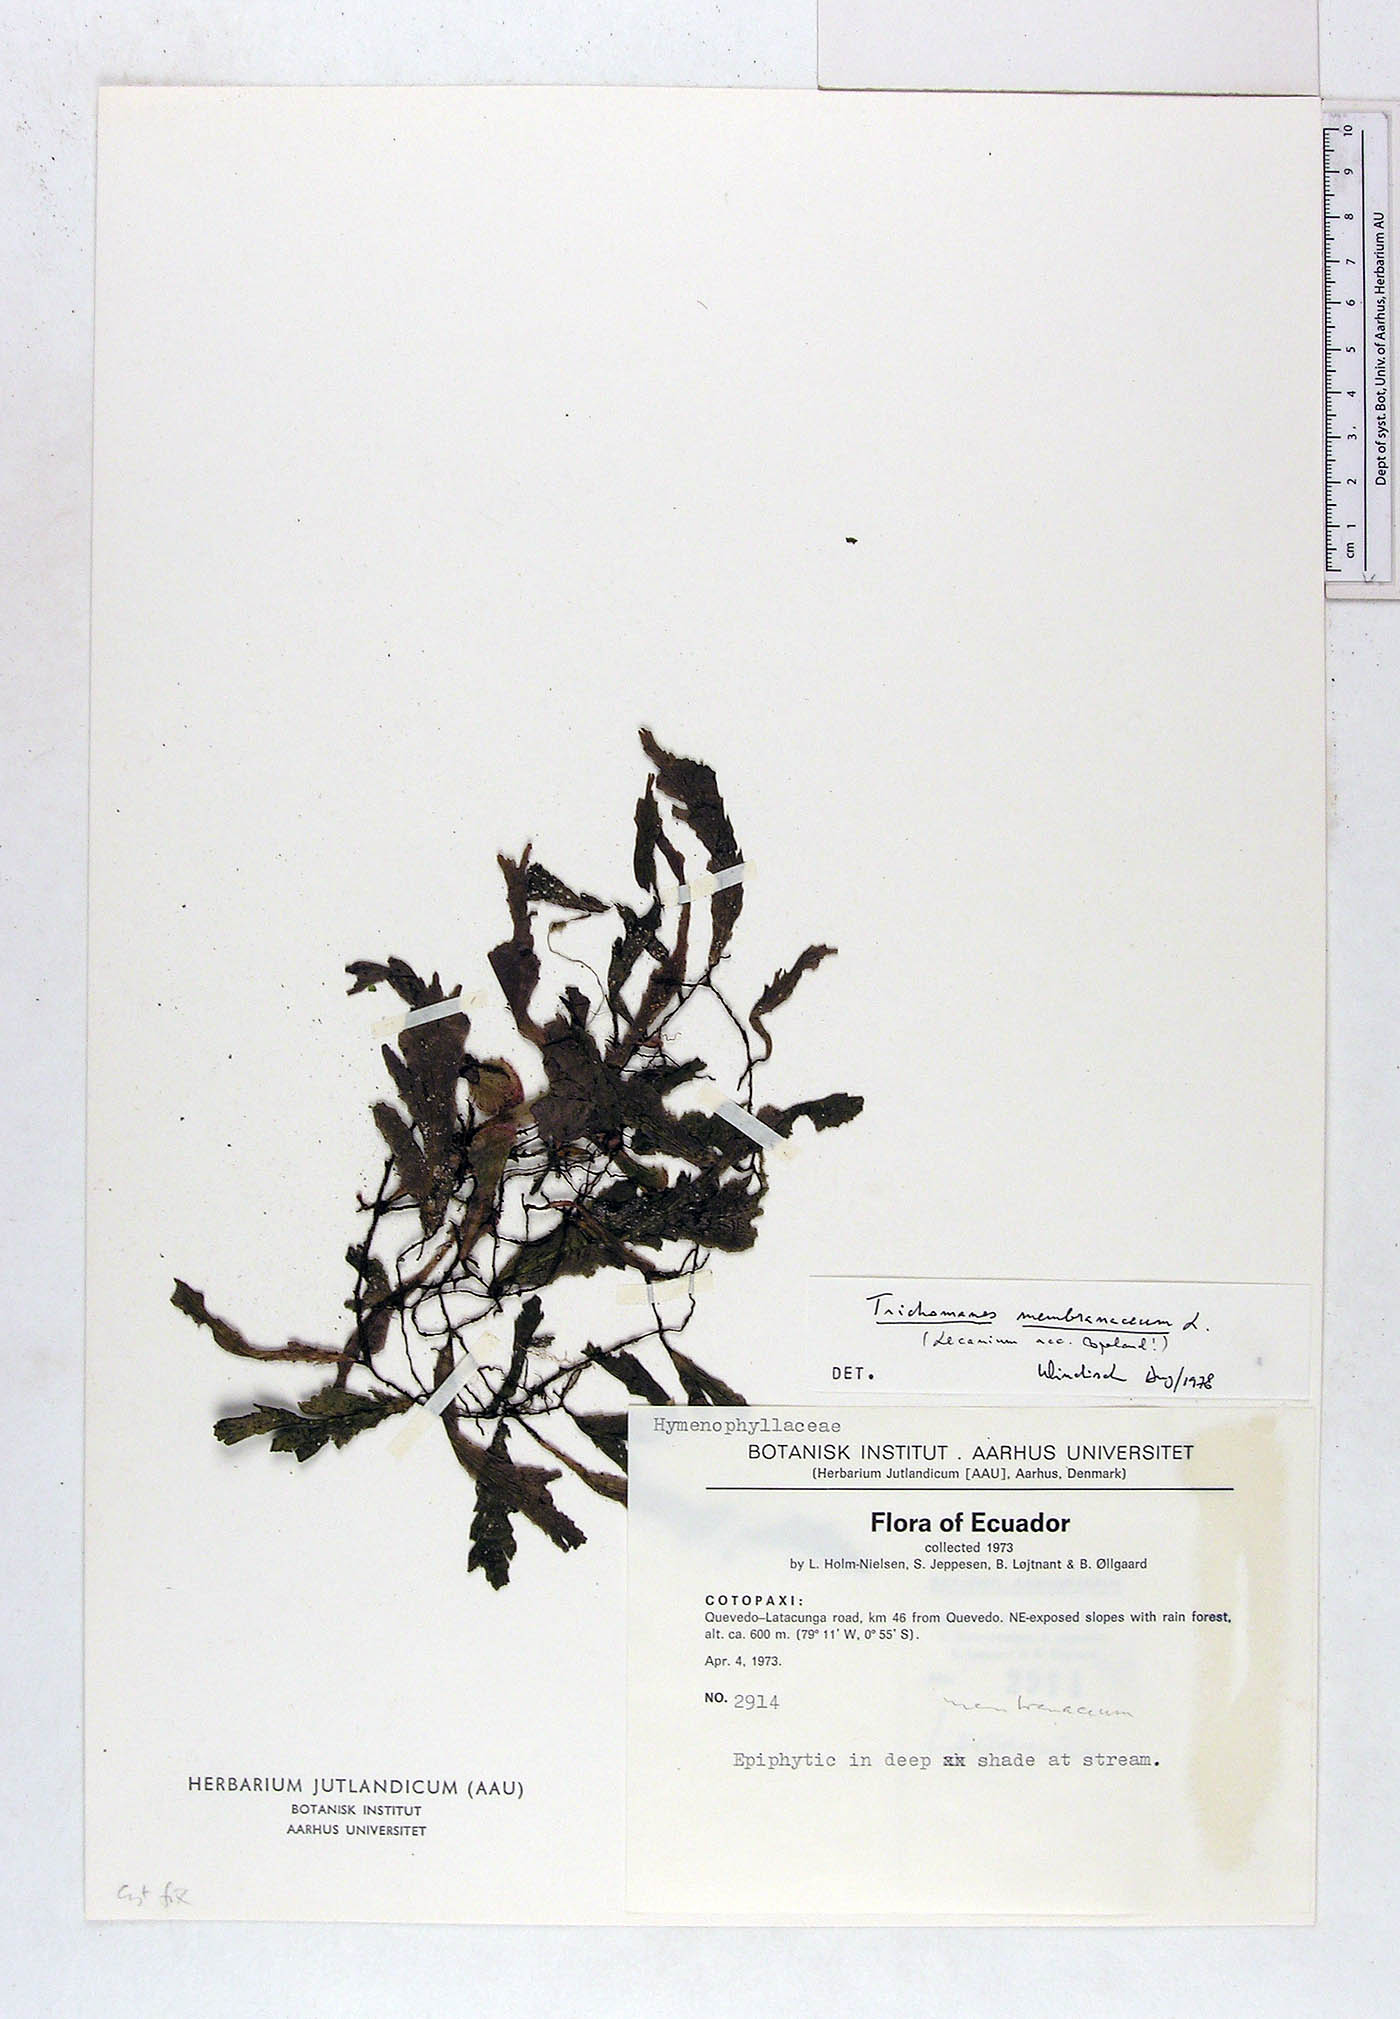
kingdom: Plantae
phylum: Tracheophyta
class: Polypodiopsida
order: Hymenophyllales
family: Hymenophyllaceae
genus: Didymoglossum
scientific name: Didymoglossum membranaceum
